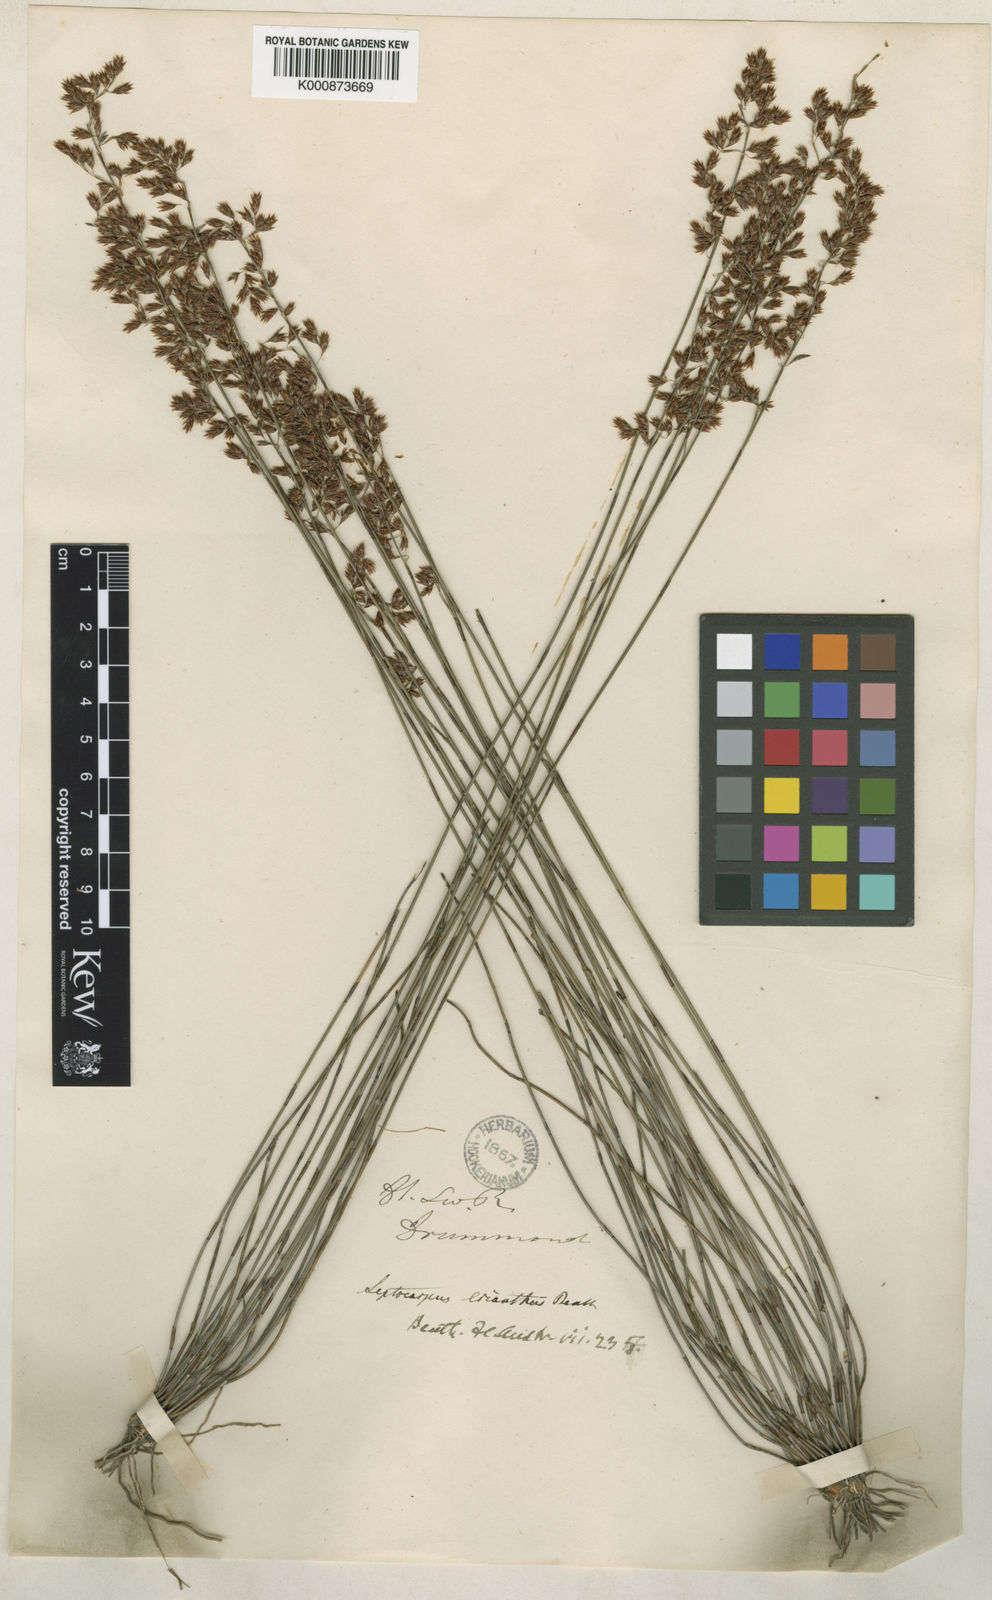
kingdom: Plantae
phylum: Tracheophyta
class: Liliopsida
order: Poales
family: Restionaceae
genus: Chaetanthus
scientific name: Chaetanthus aristatus
